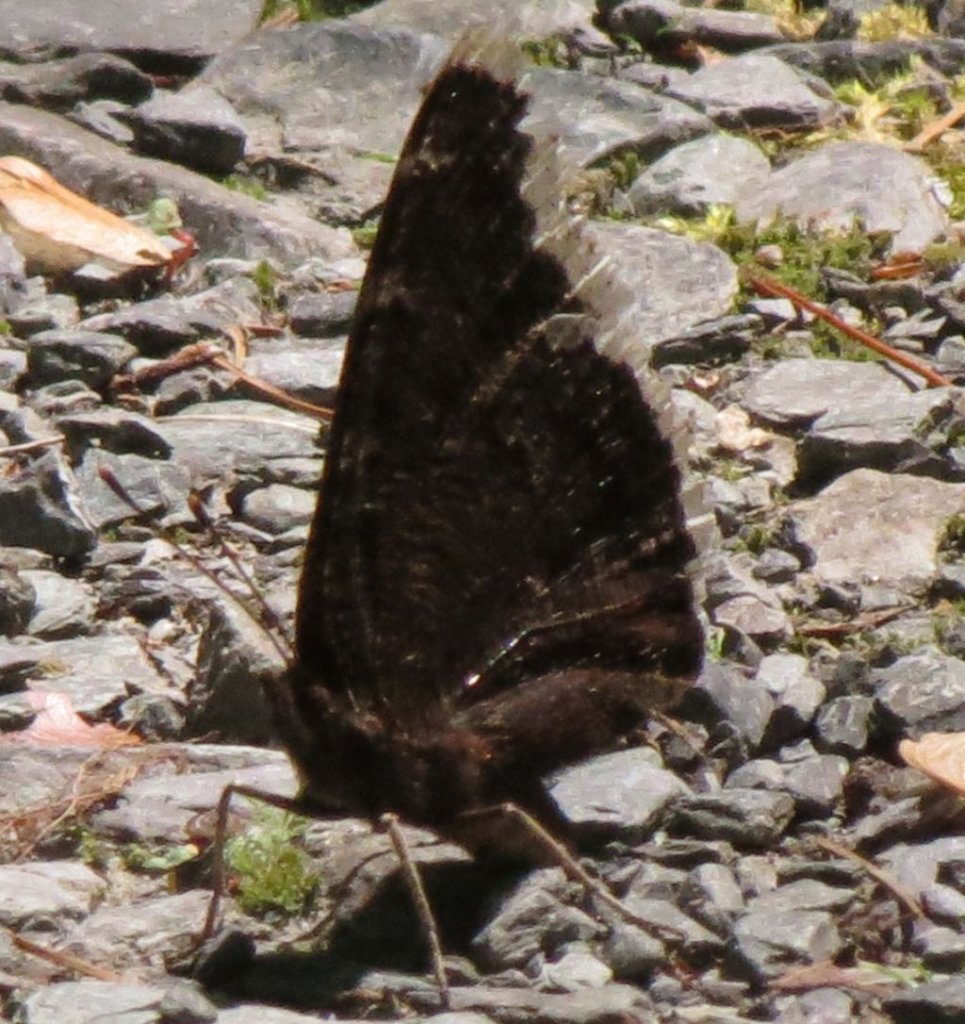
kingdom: Animalia
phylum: Arthropoda
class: Insecta
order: Lepidoptera
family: Nymphalidae
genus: Nymphalis
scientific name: Nymphalis antiopa
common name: Mourning Cloak
